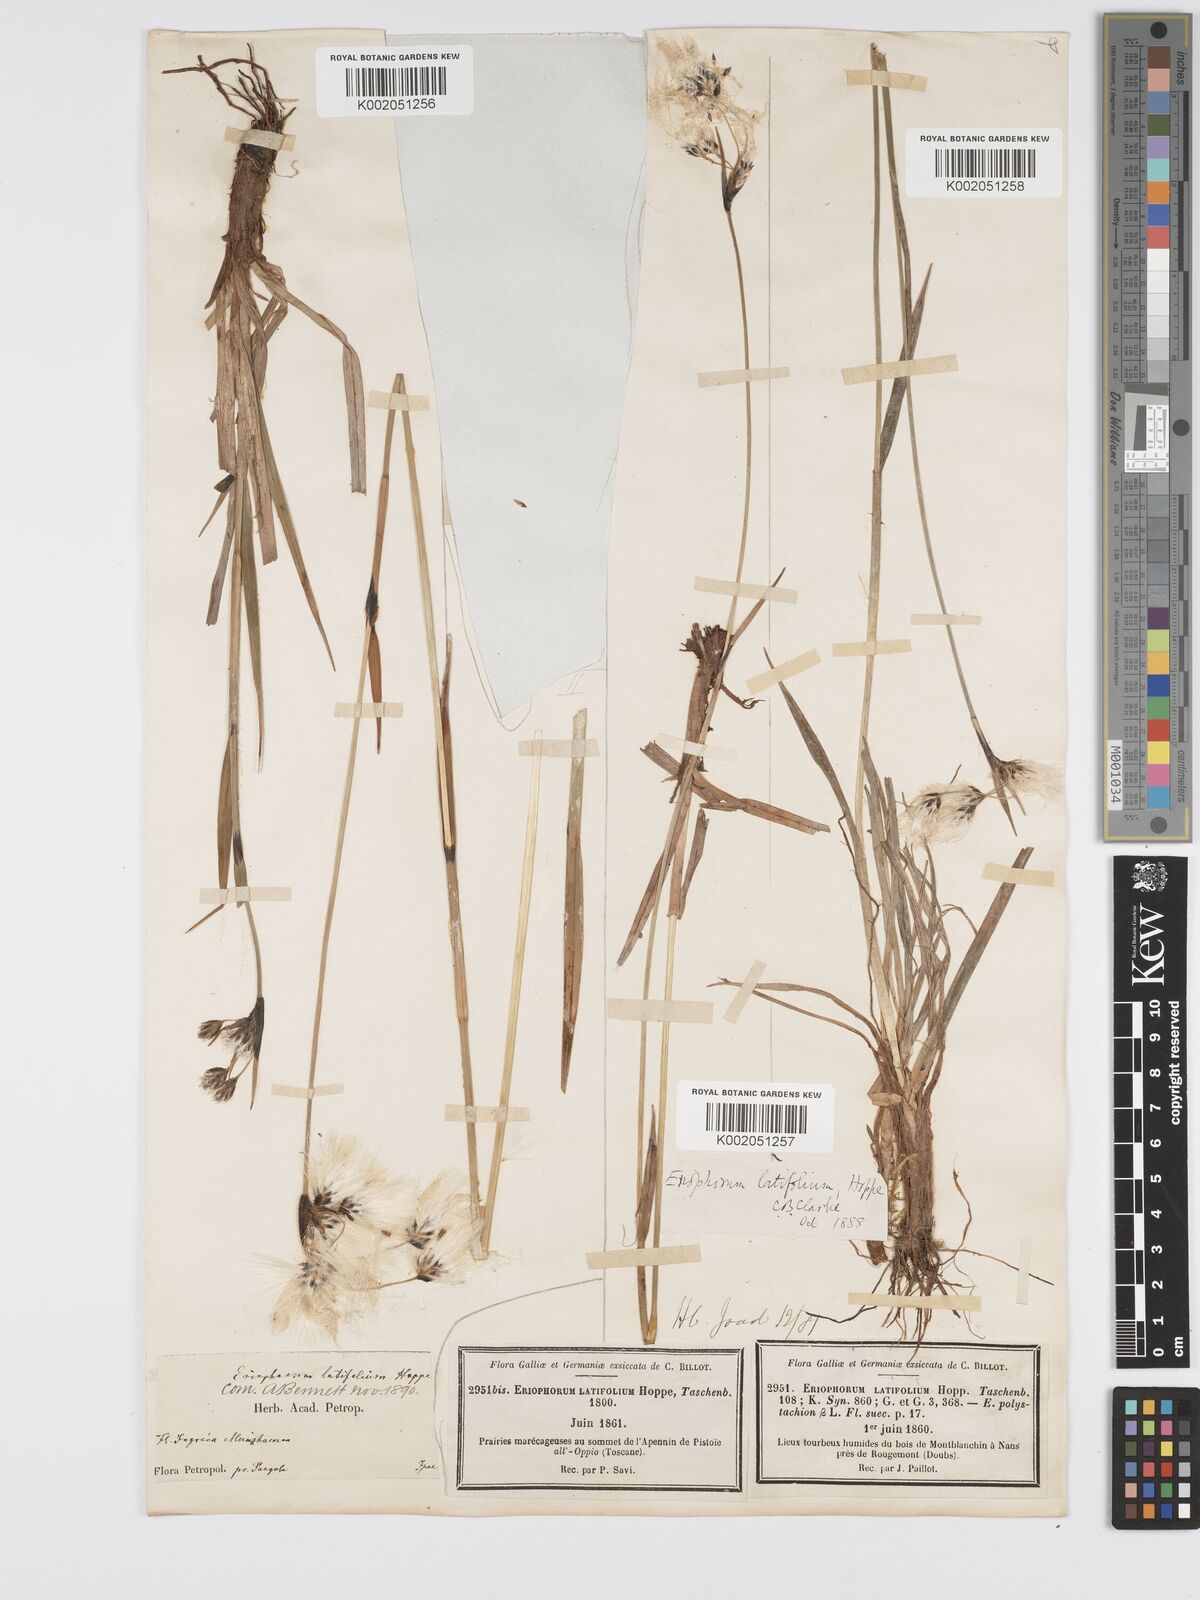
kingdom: Plantae
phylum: Tracheophyta
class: Liliopsida
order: Poales
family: Cyperaceae
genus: Eriophorum
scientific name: Eriophorum latifolium
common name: Broad-leaved cottongrass
